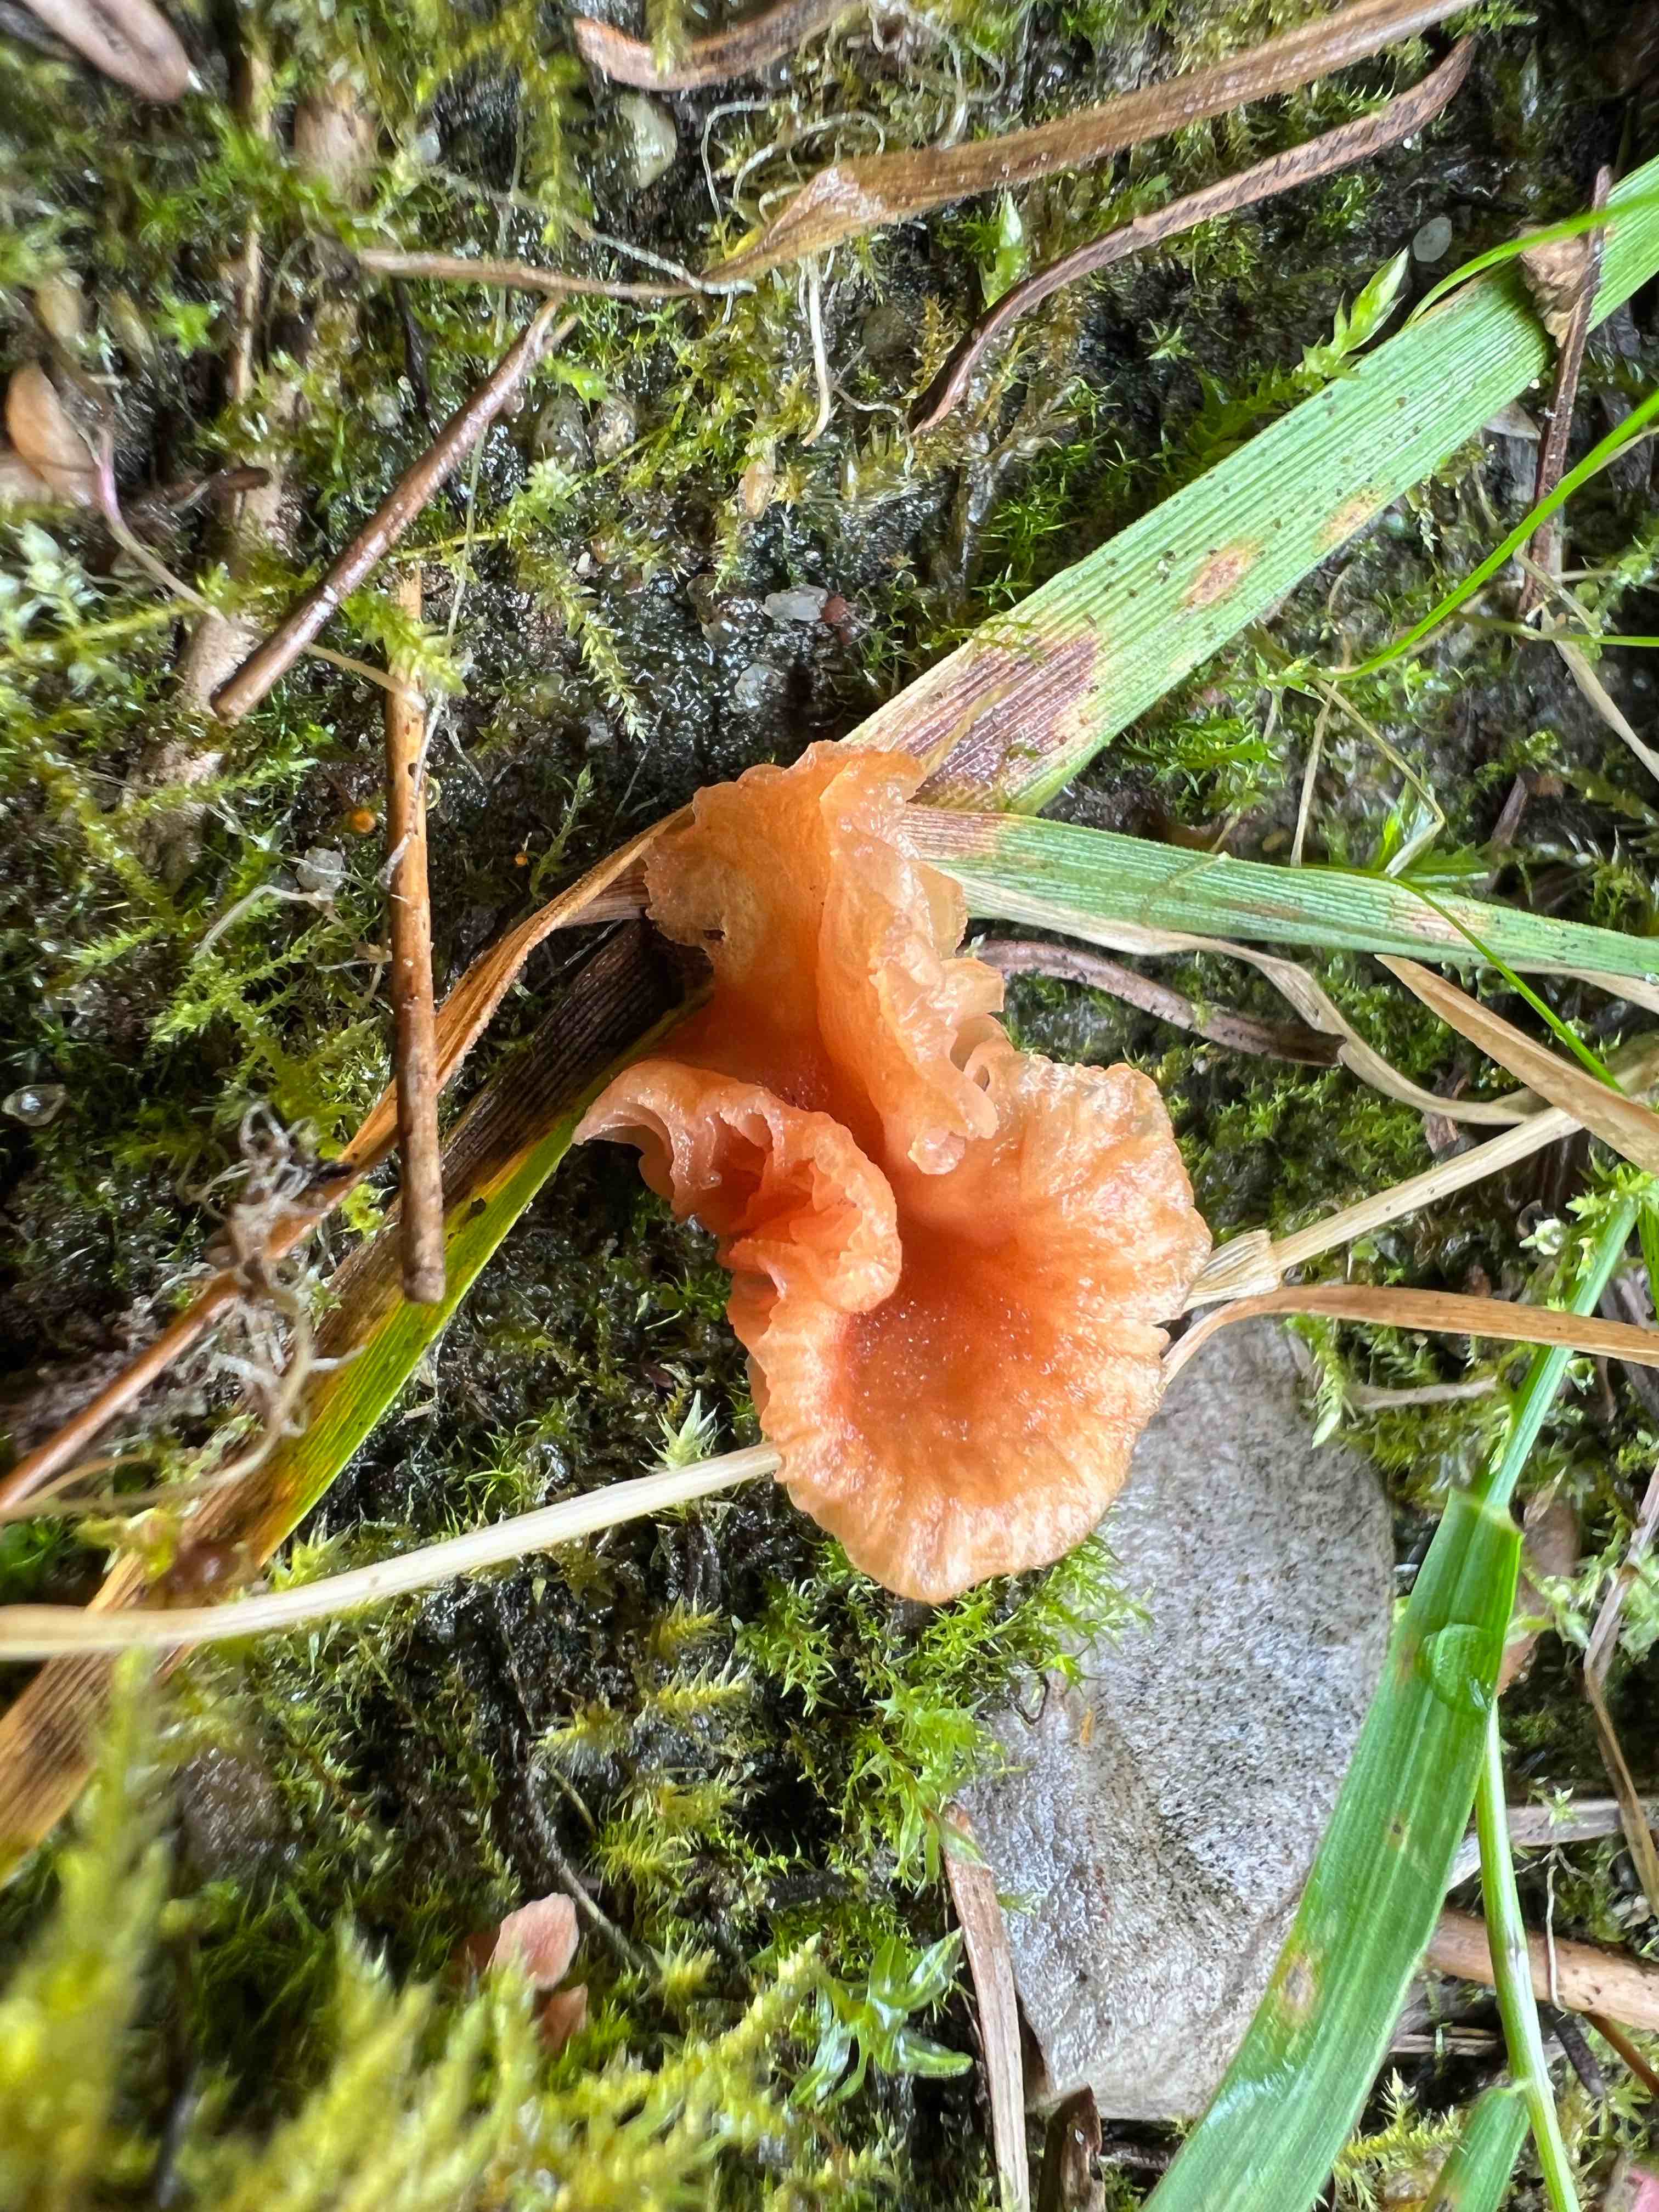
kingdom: Fungi
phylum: Basidiomycota
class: Agaricomycetes
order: Agaricales
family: Hydnangiaceae
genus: Laccaria
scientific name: Laccaria tortilis
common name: krybende ametysthat
